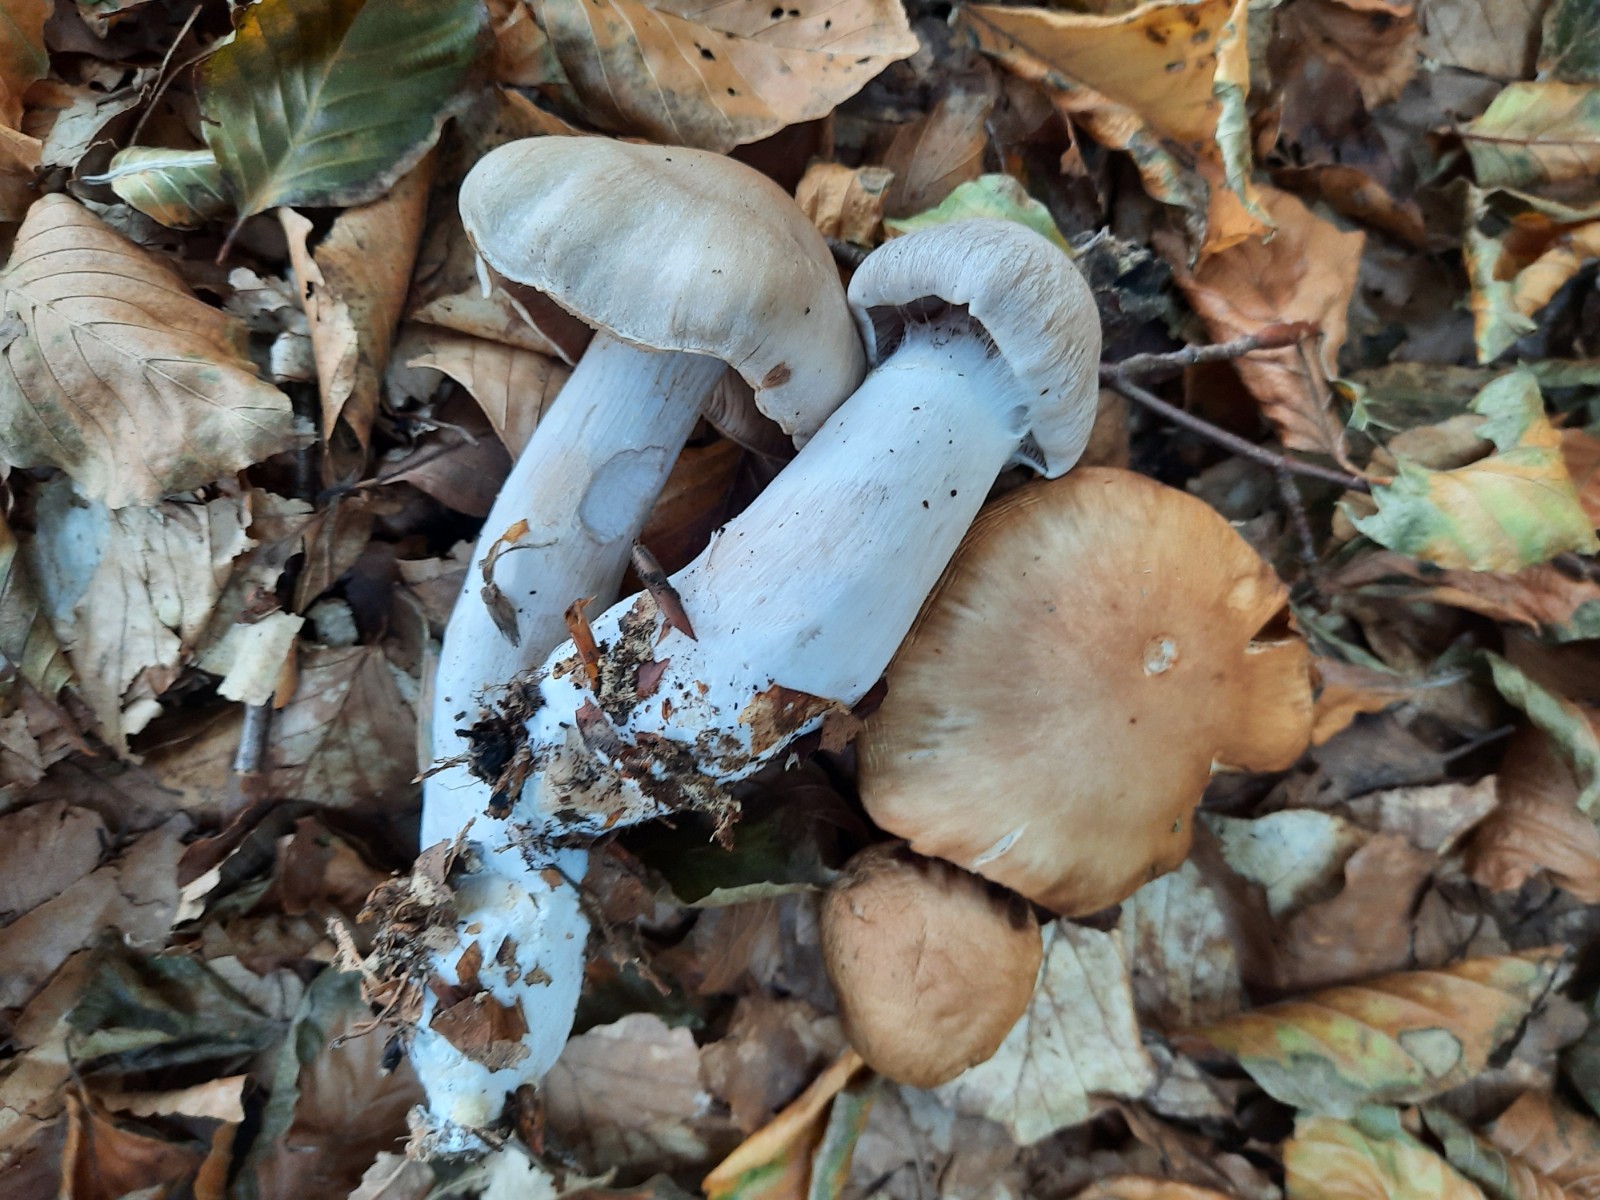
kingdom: Fungi
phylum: Basidiomycota
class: Agaricomycetes
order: Agaricales
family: Cortinariaceae
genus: Cortinarius
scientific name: Cortinarius turgidus
